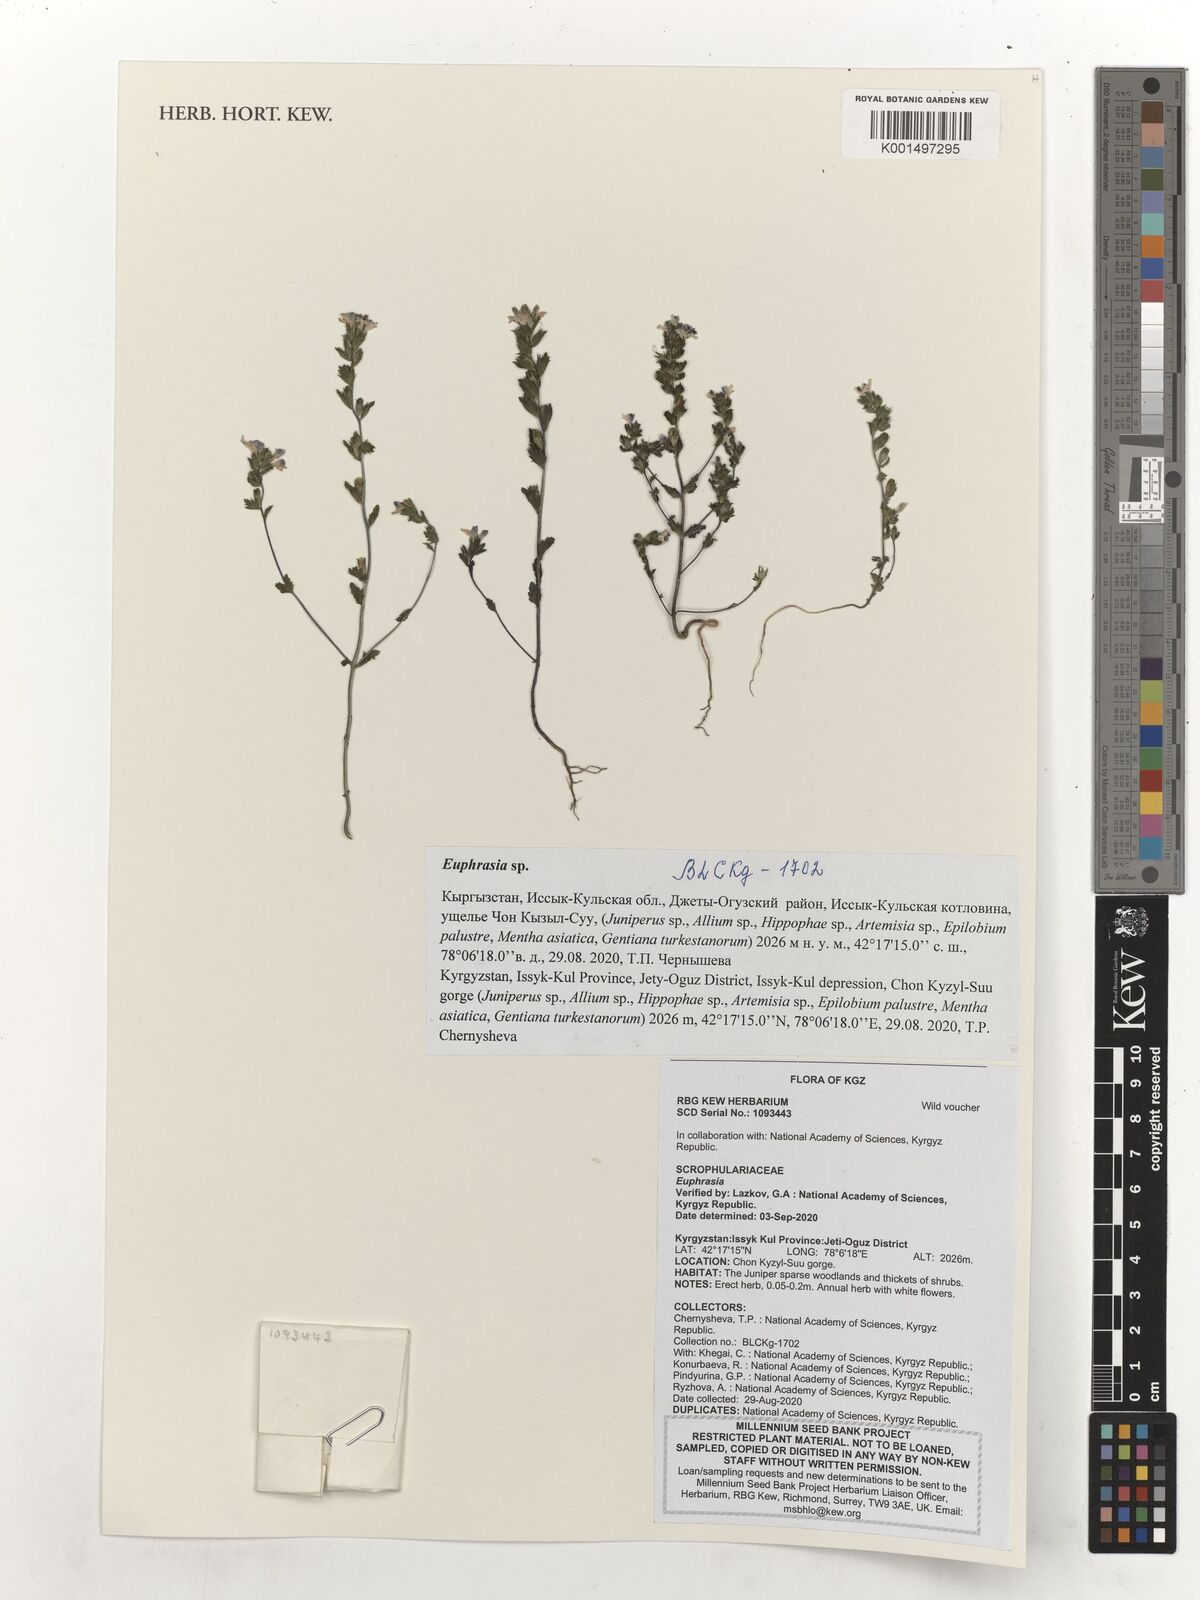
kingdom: Plantae
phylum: Tracheophyta
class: Magnoliopsida
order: Lamiales
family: Orobanchaceae
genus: Euphrasia
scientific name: Euphrasia
